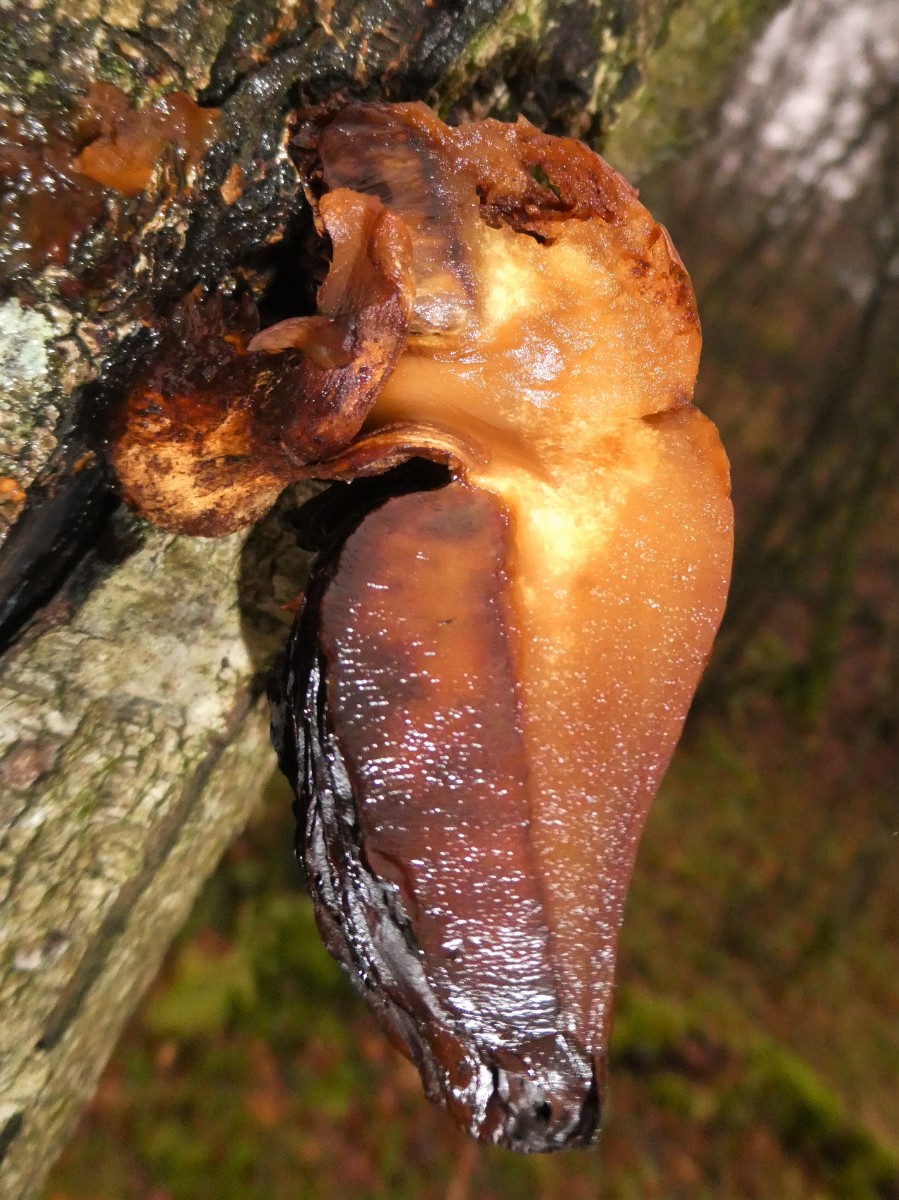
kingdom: Fungi
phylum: Basidiomycota
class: Agaricomycetes
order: Agaricales
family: Strophariaceae
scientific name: Strophariaceae
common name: bredbladfamilien
